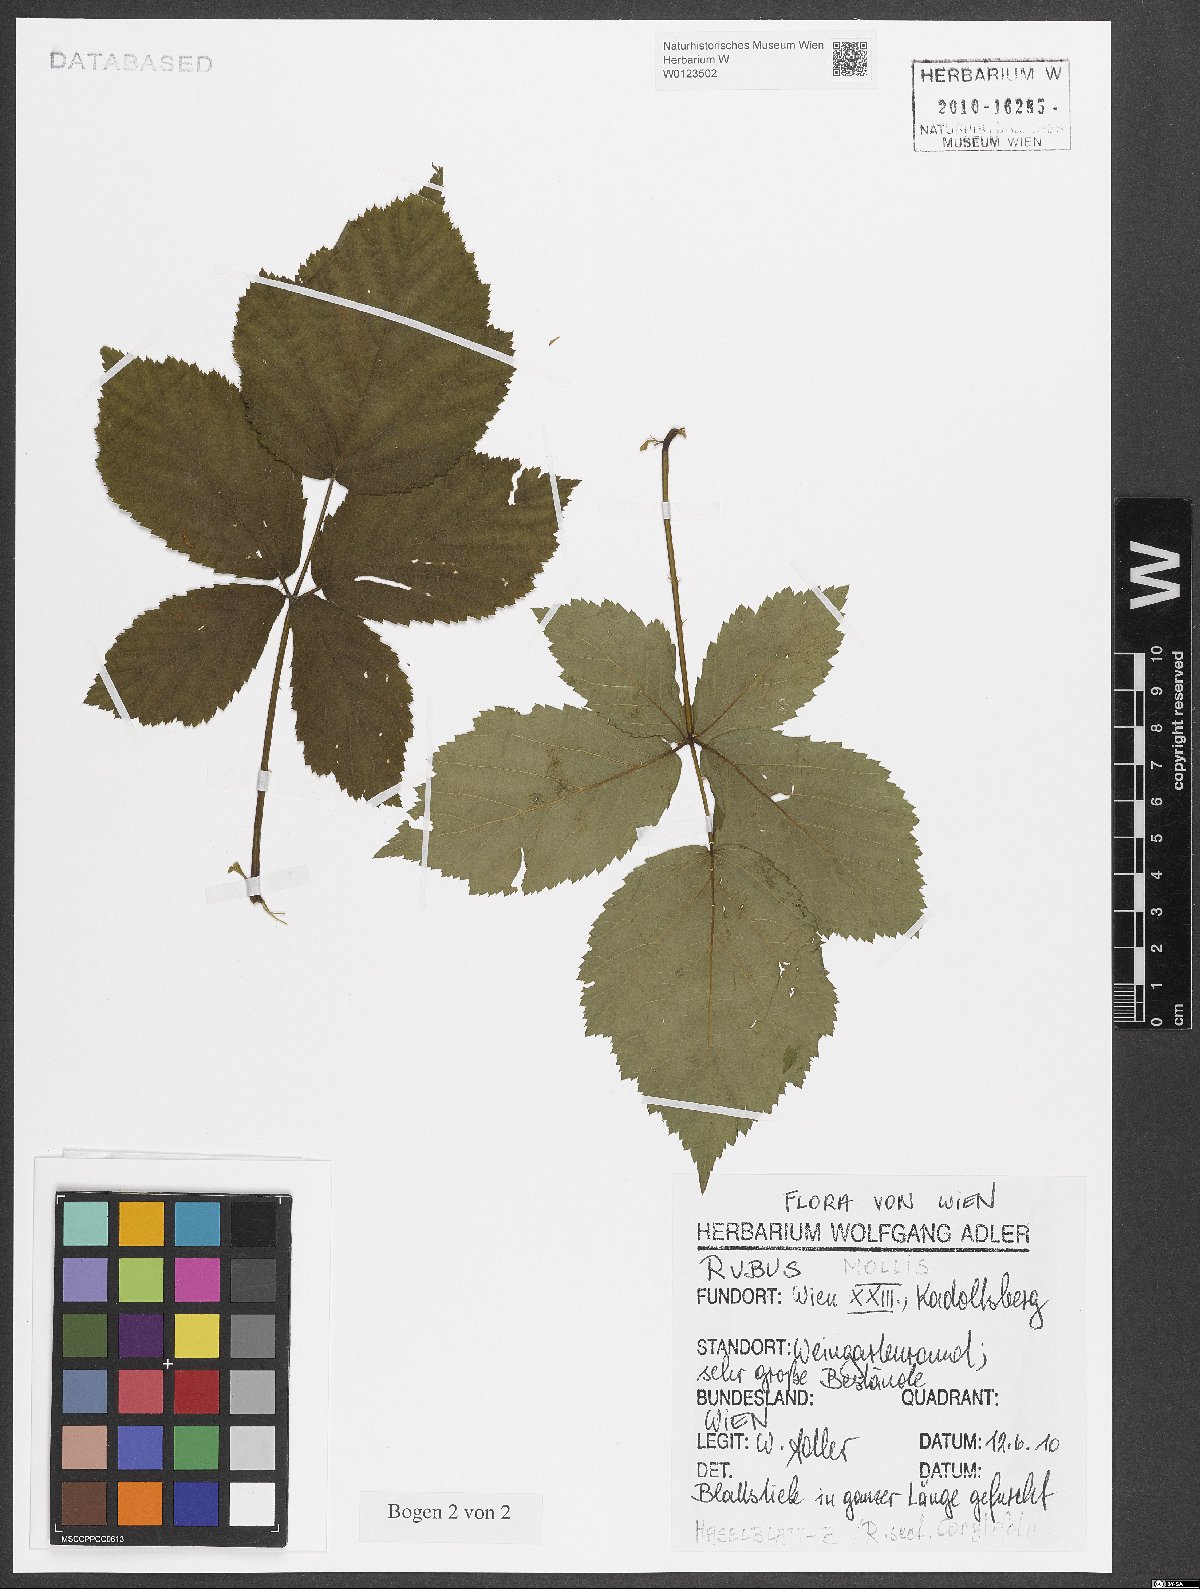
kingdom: Plantae
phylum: Tracheophyta
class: Magnoliopsida
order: Rosales
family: Rosaceae
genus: Rubus
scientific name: Rubus mollis
